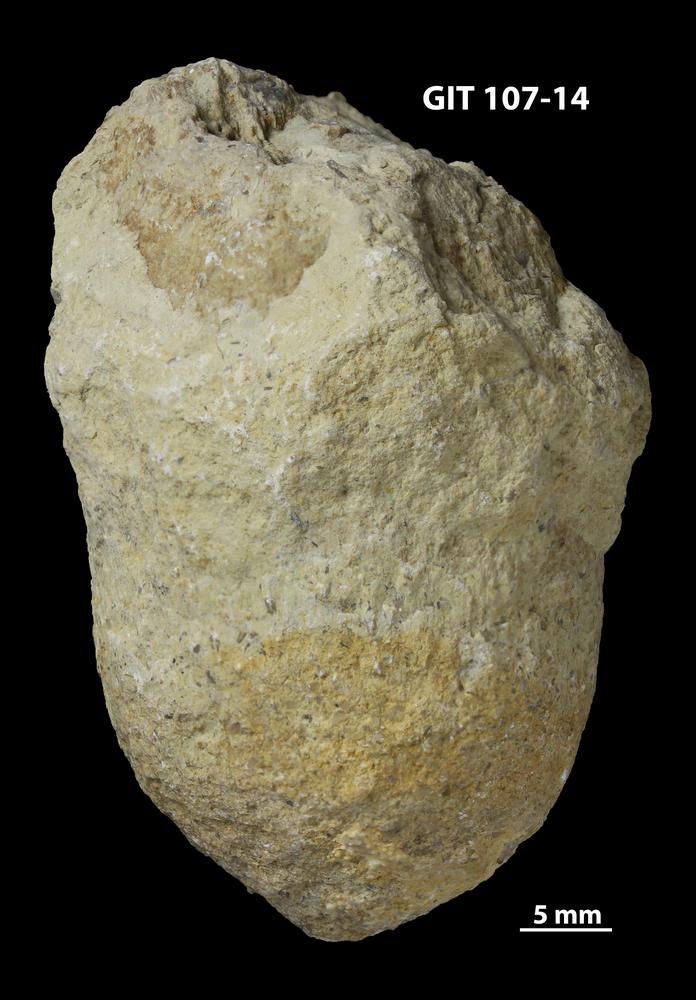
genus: Amphorichnus
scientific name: Amphorichnus
